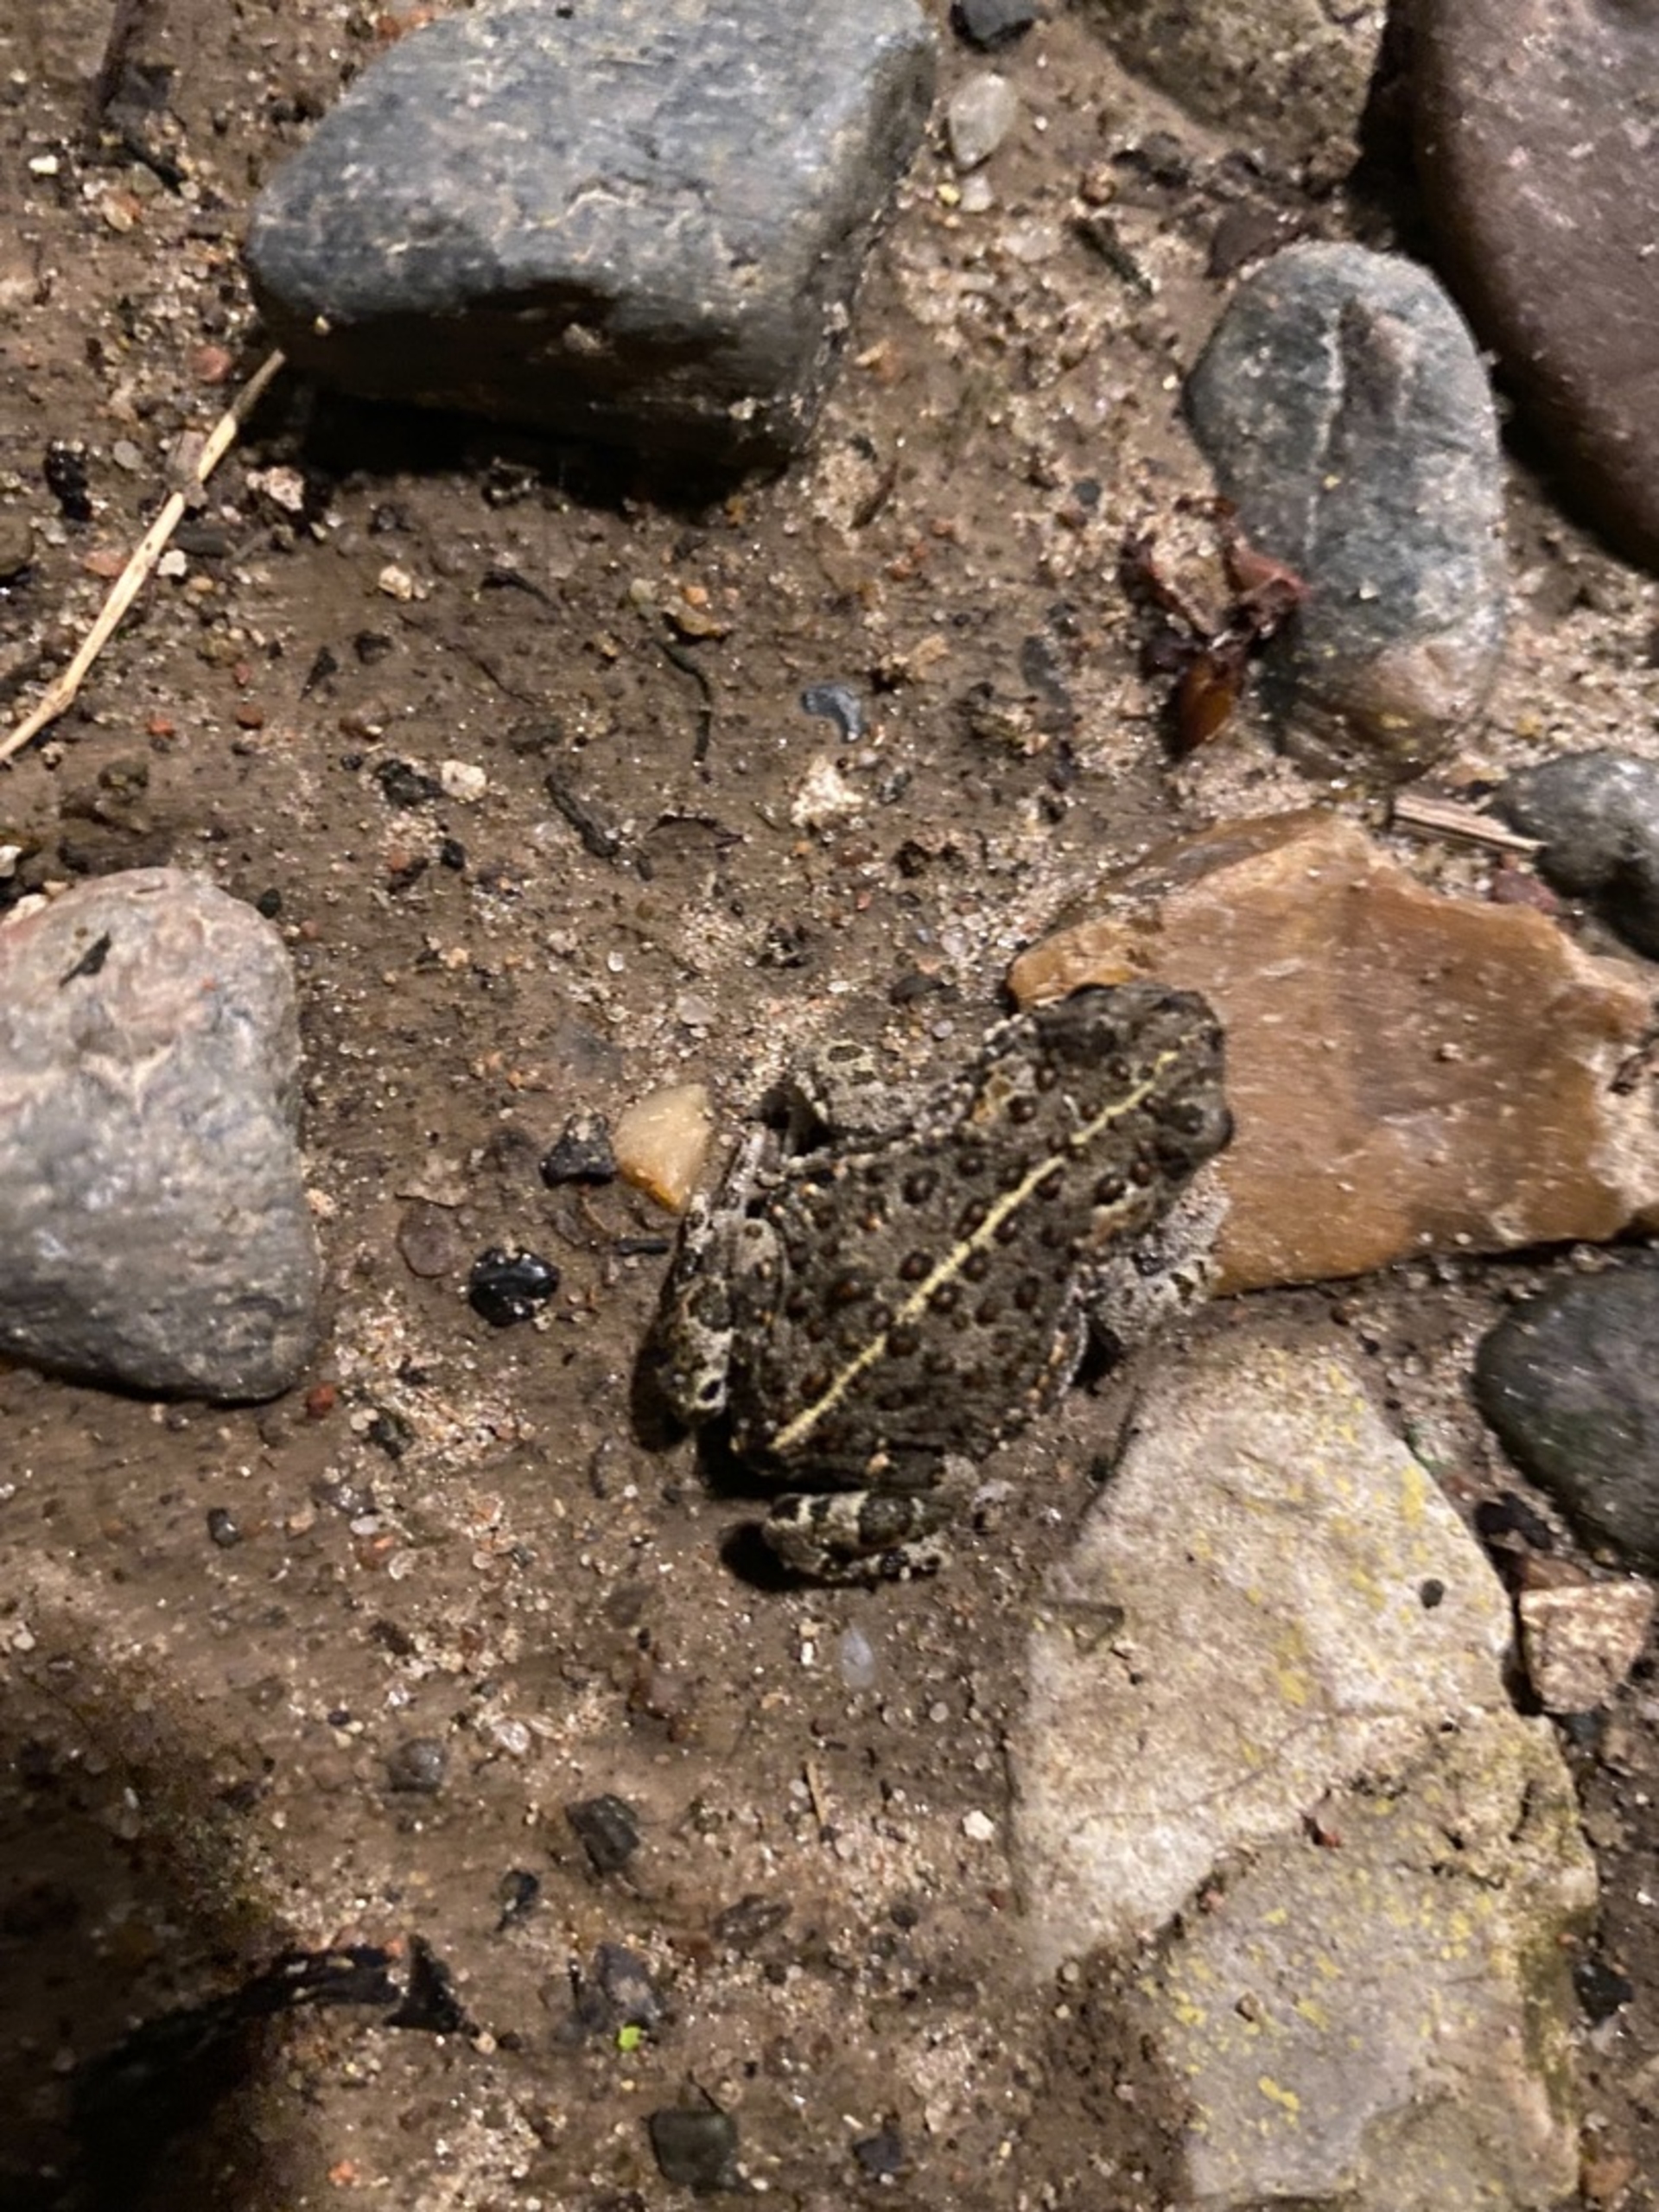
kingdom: Animalia
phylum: Chordata
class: Amphibia
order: Anura
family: Bufonidae
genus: Epidalea
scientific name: Epidalea calamita
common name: Strandtudse
